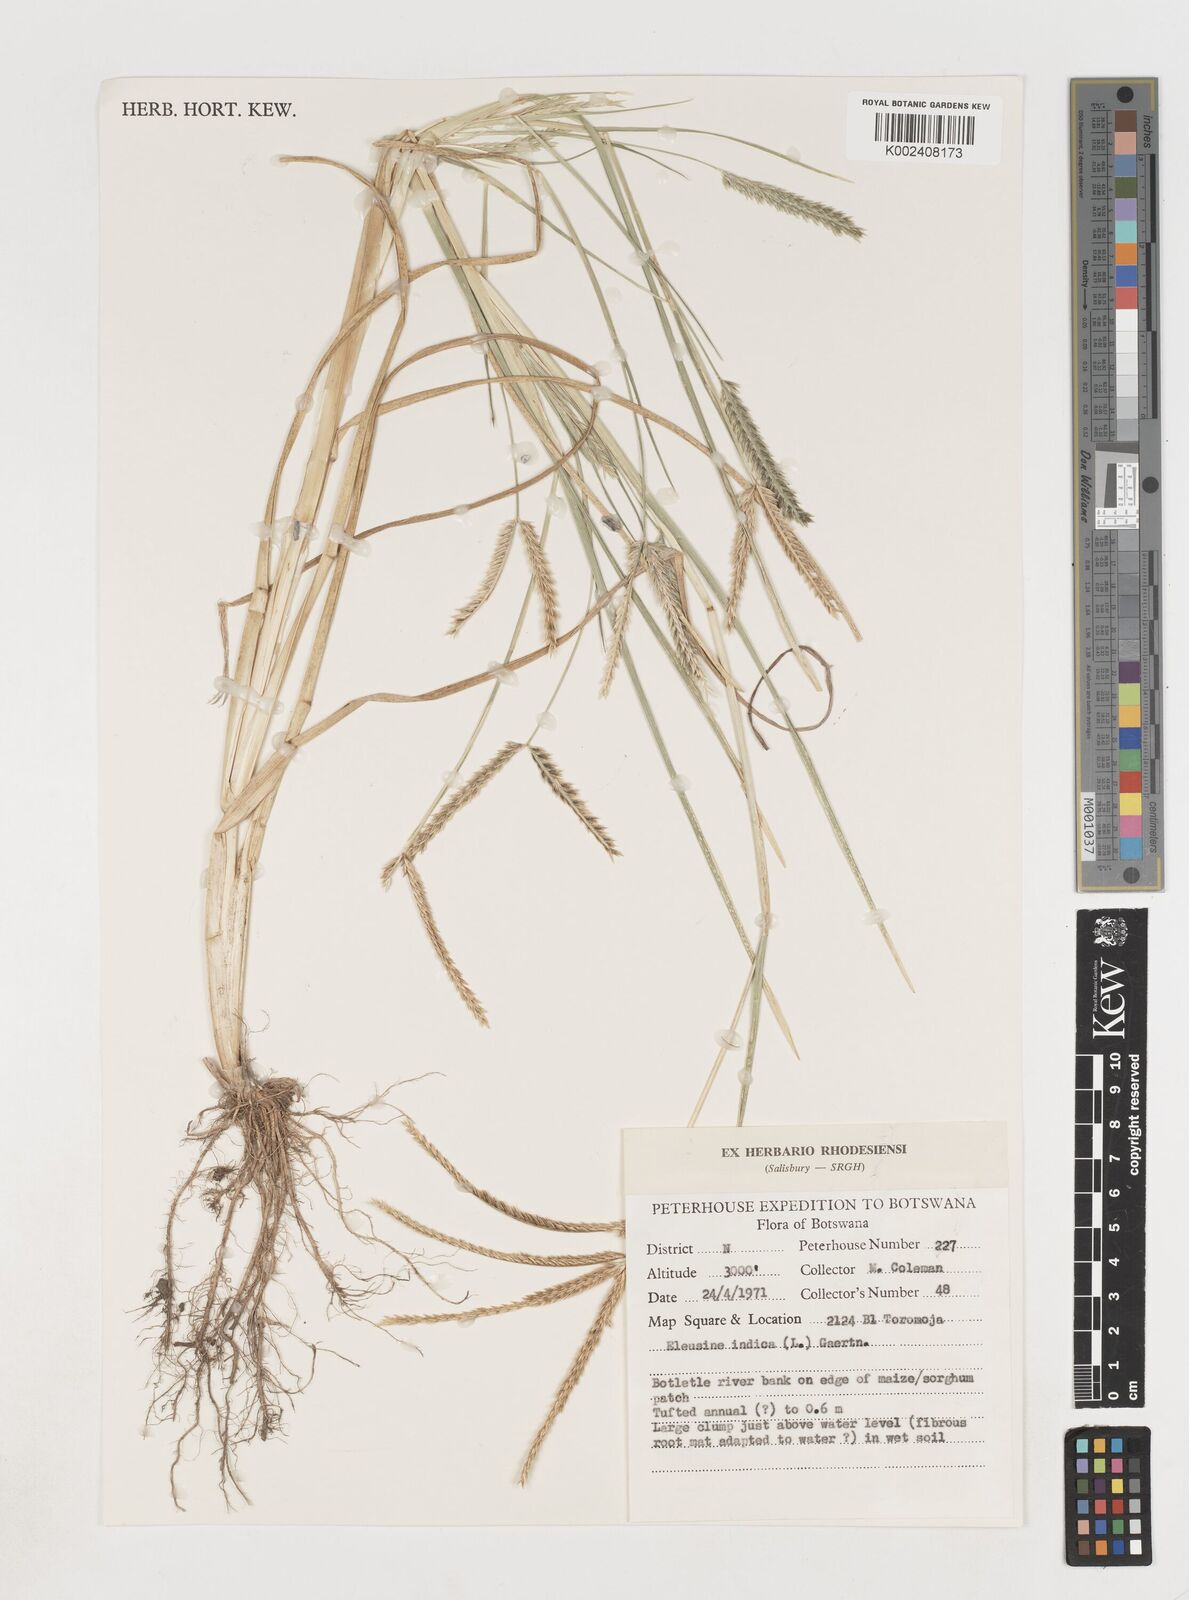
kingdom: Plantae
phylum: Tracheophyta
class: Liliopsida
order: Poales
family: Poaceae
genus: Eleusine
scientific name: Eleusine africana
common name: Wild african finger millet
